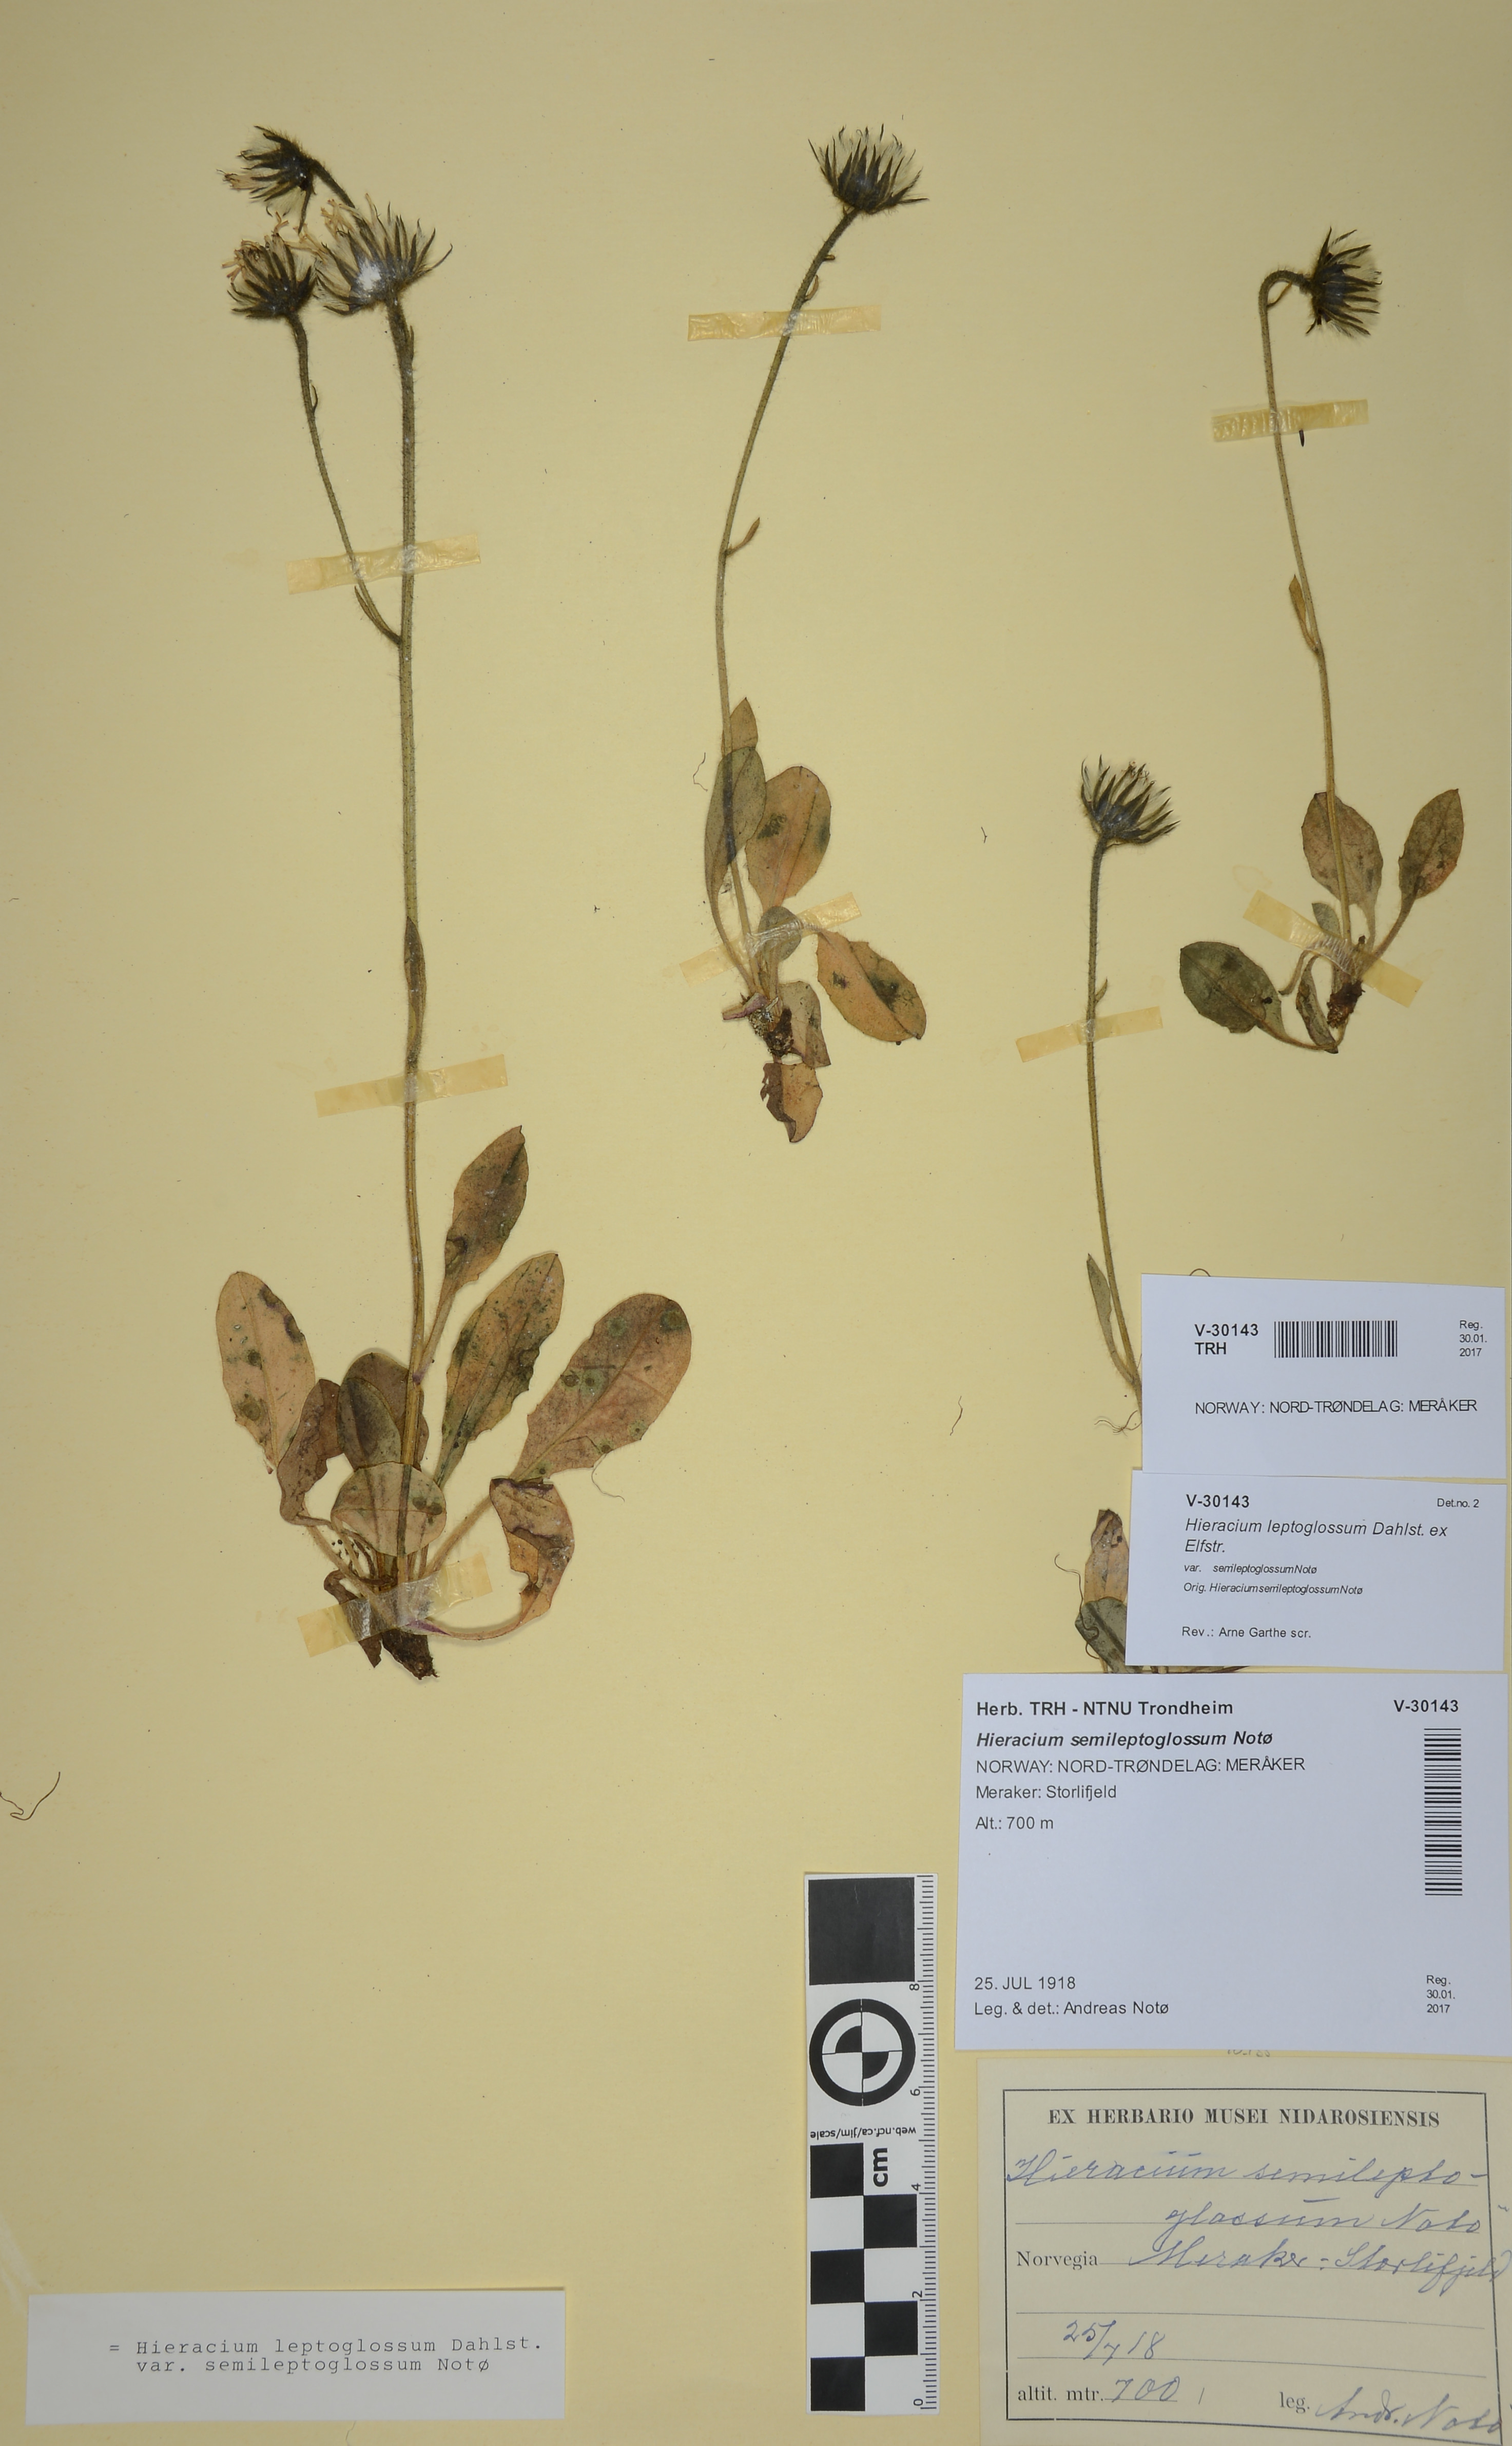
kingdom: Plantae
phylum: Tracheophyta
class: Magnoliopsida
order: Asterales
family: Asteraceae
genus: Hieracium
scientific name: Hieracium leptoglossum
